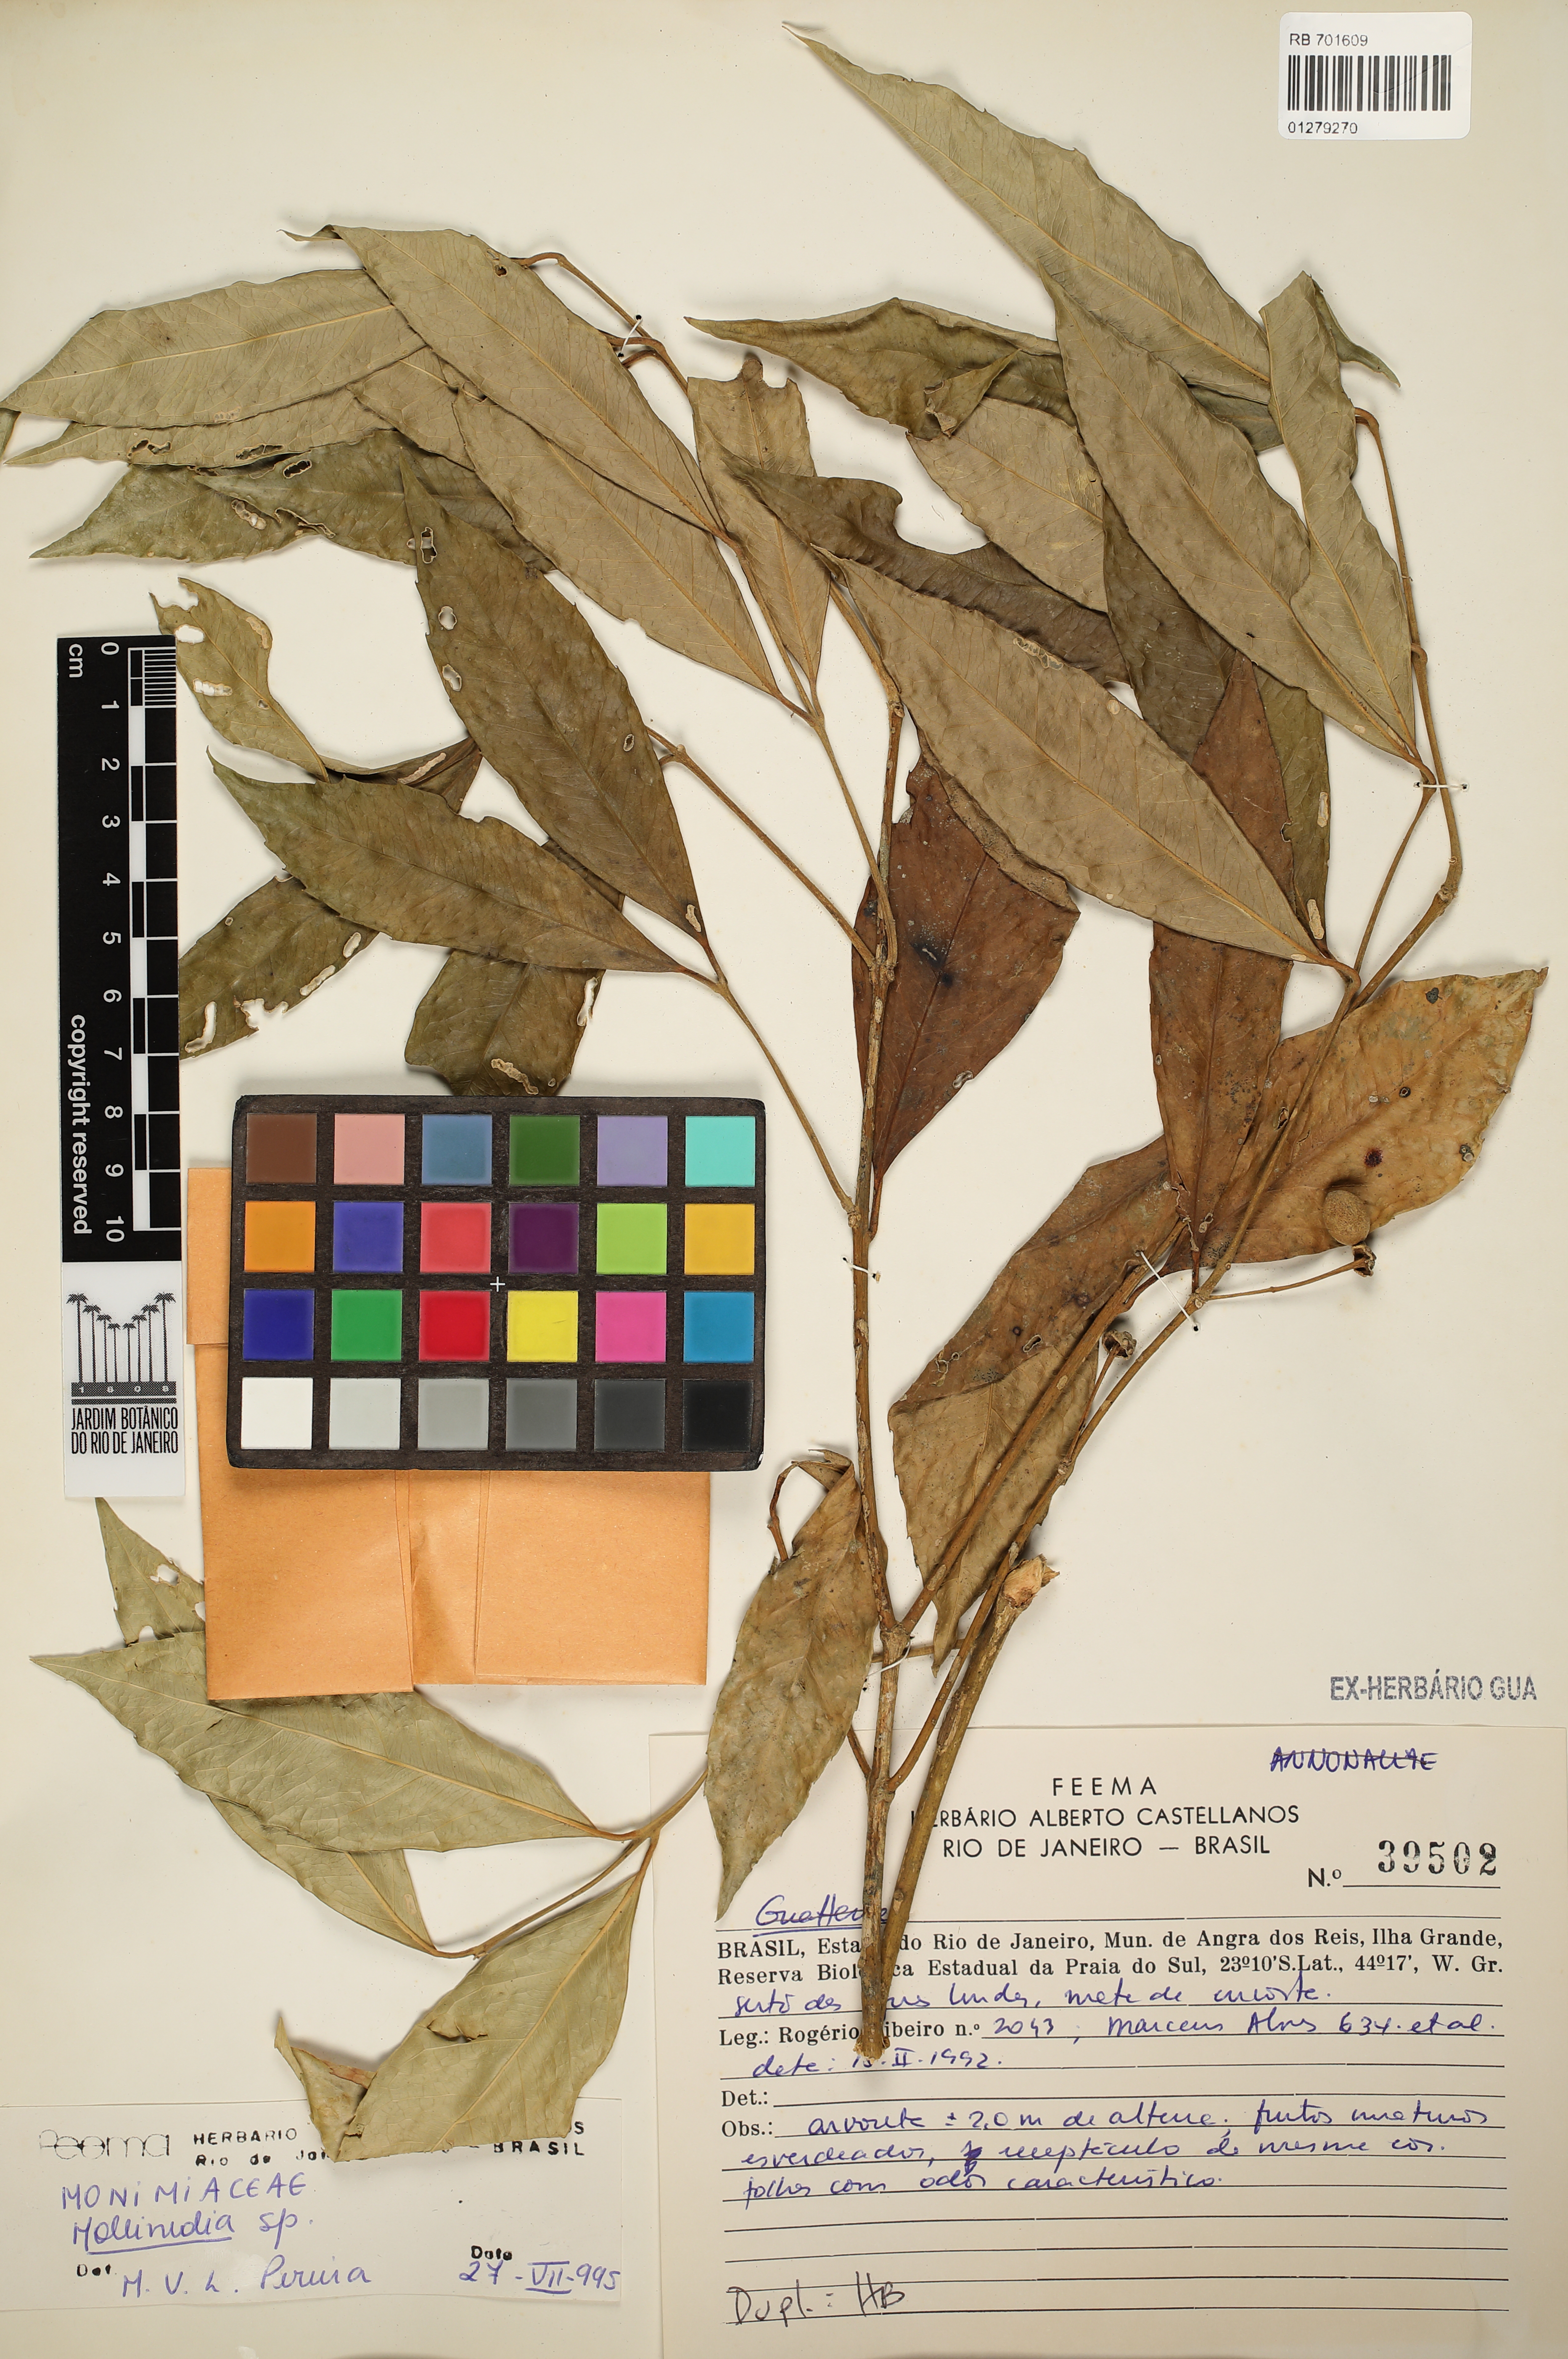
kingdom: Plantae
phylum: Tracheophyta
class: Magnoliopsida
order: Laurales
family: Monimiaceae
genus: Mollinedia
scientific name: Mollinedia
